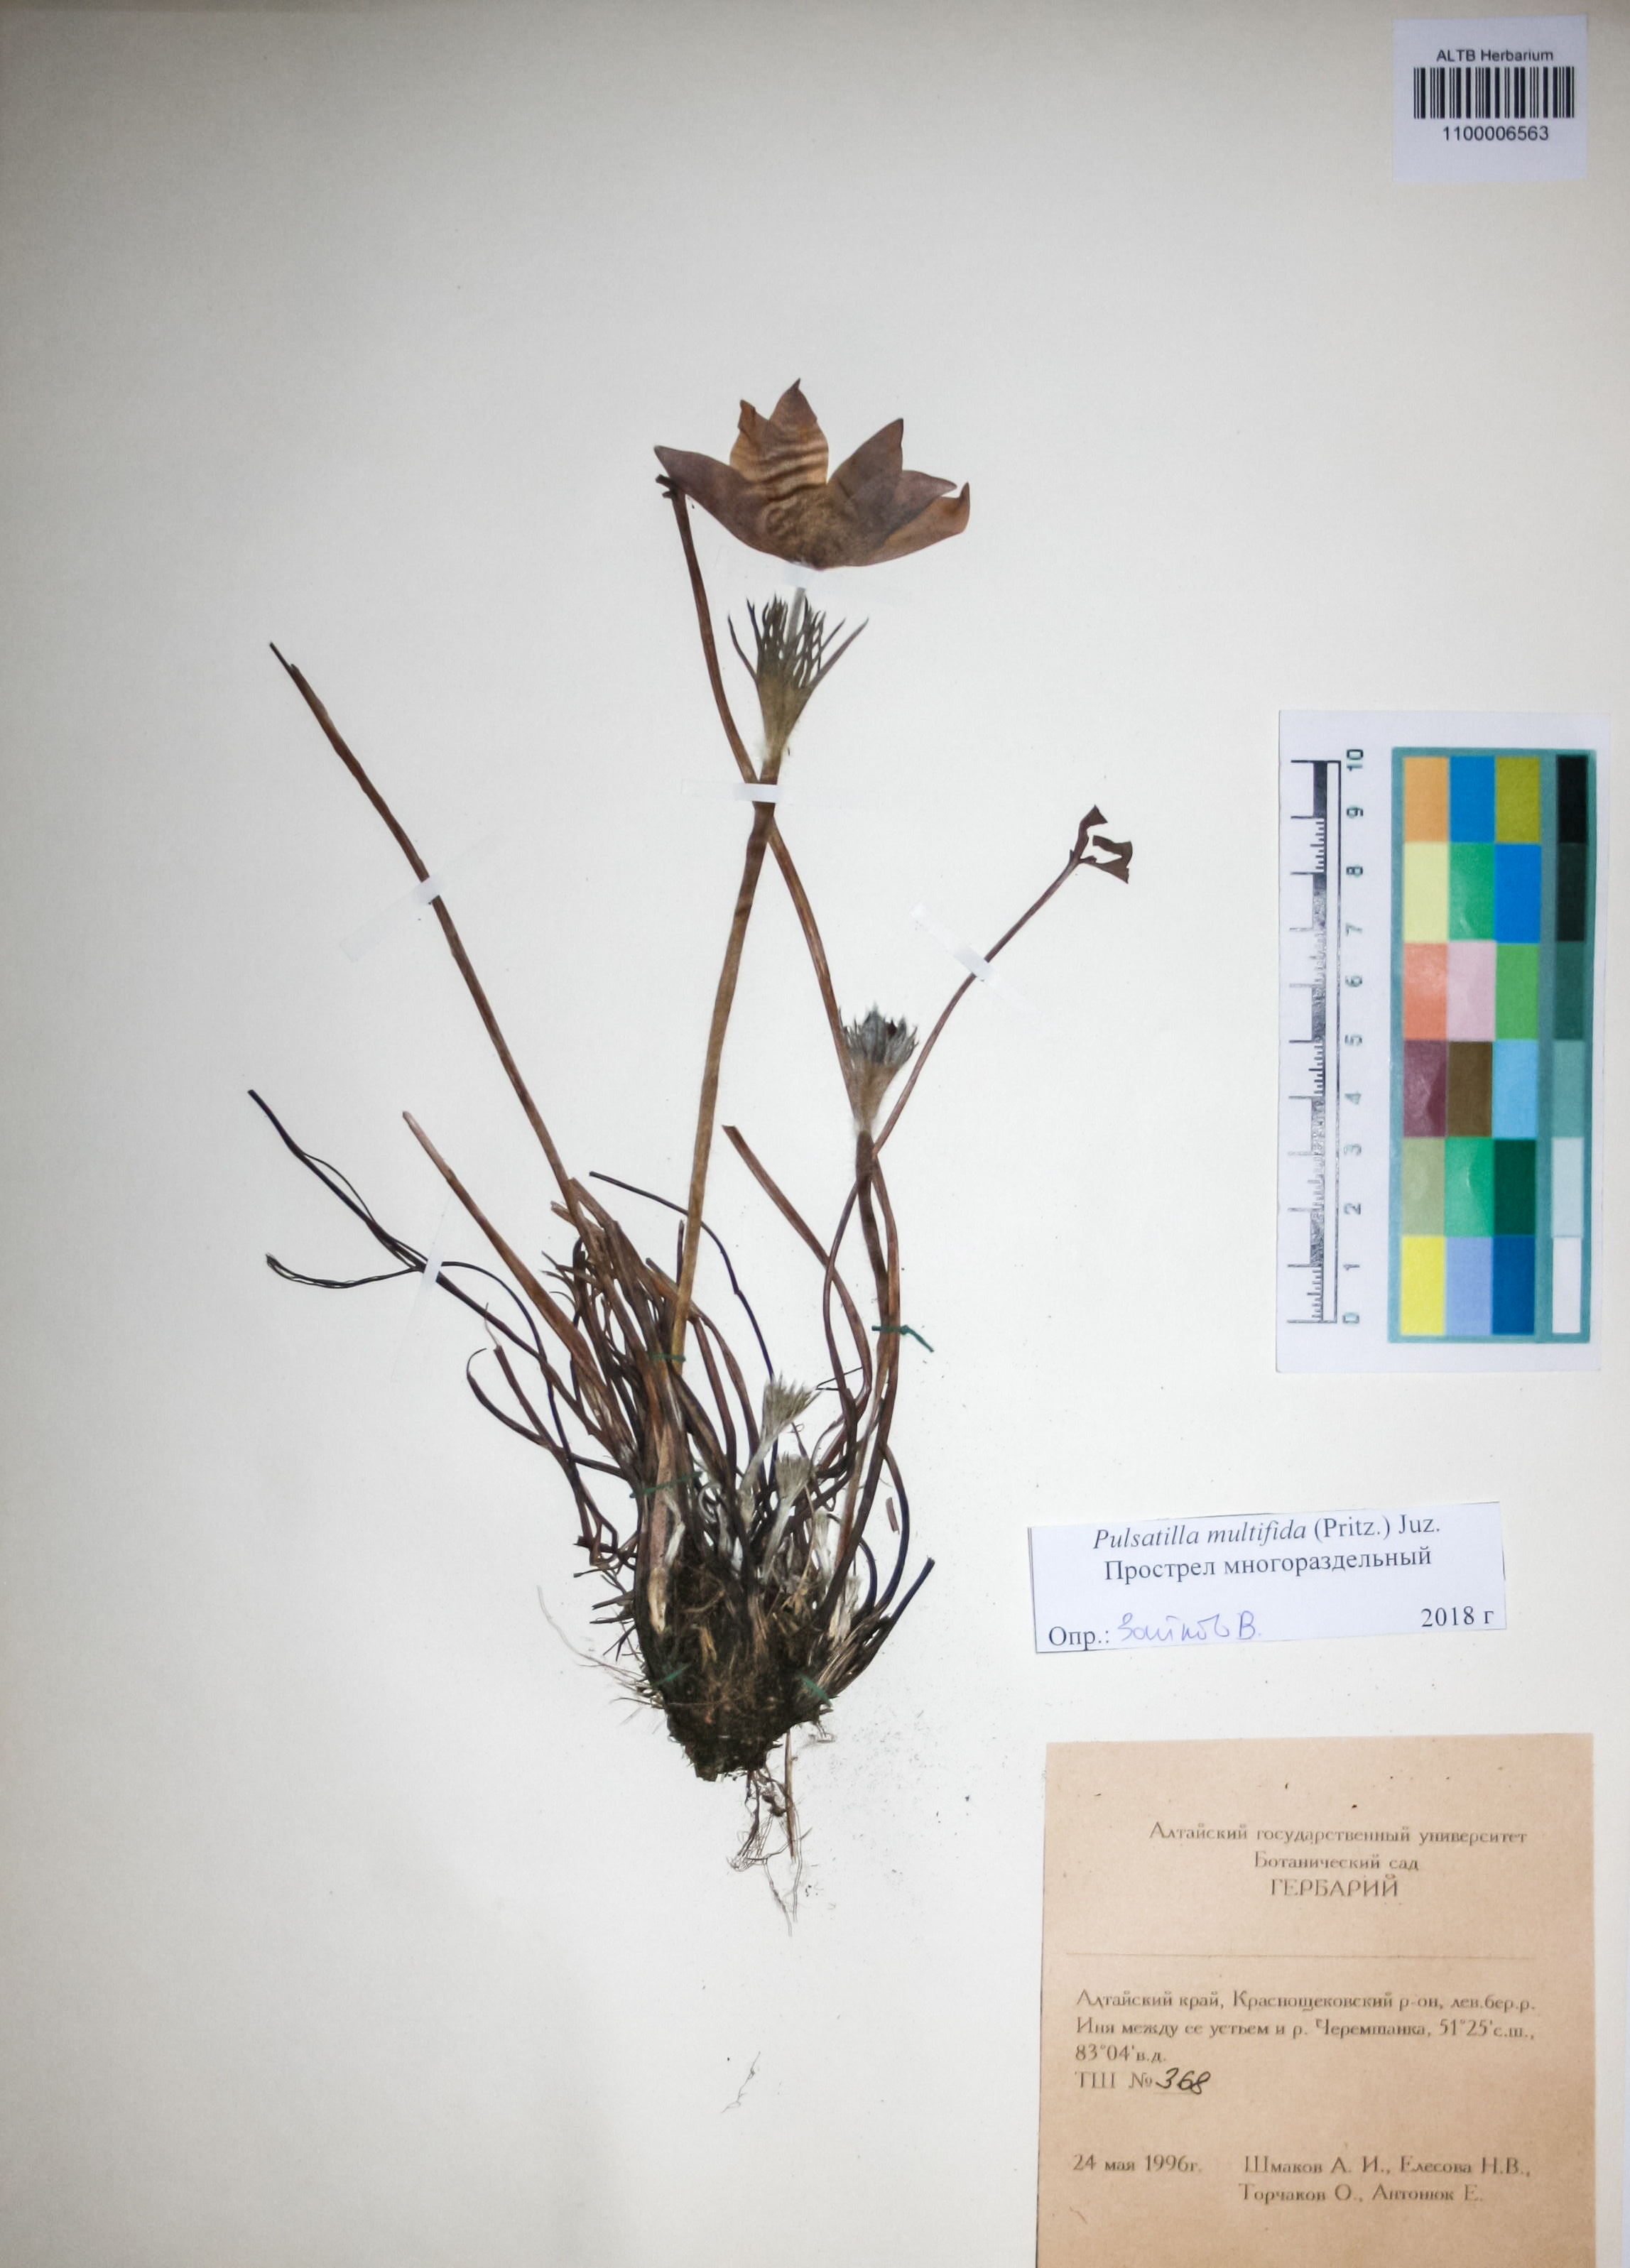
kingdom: Plantae
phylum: Tracheophyta
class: Magnoliopsida
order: Ranunculales
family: Ranunculaceae
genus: Pulsatilla
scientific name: Pulsatilla patens
